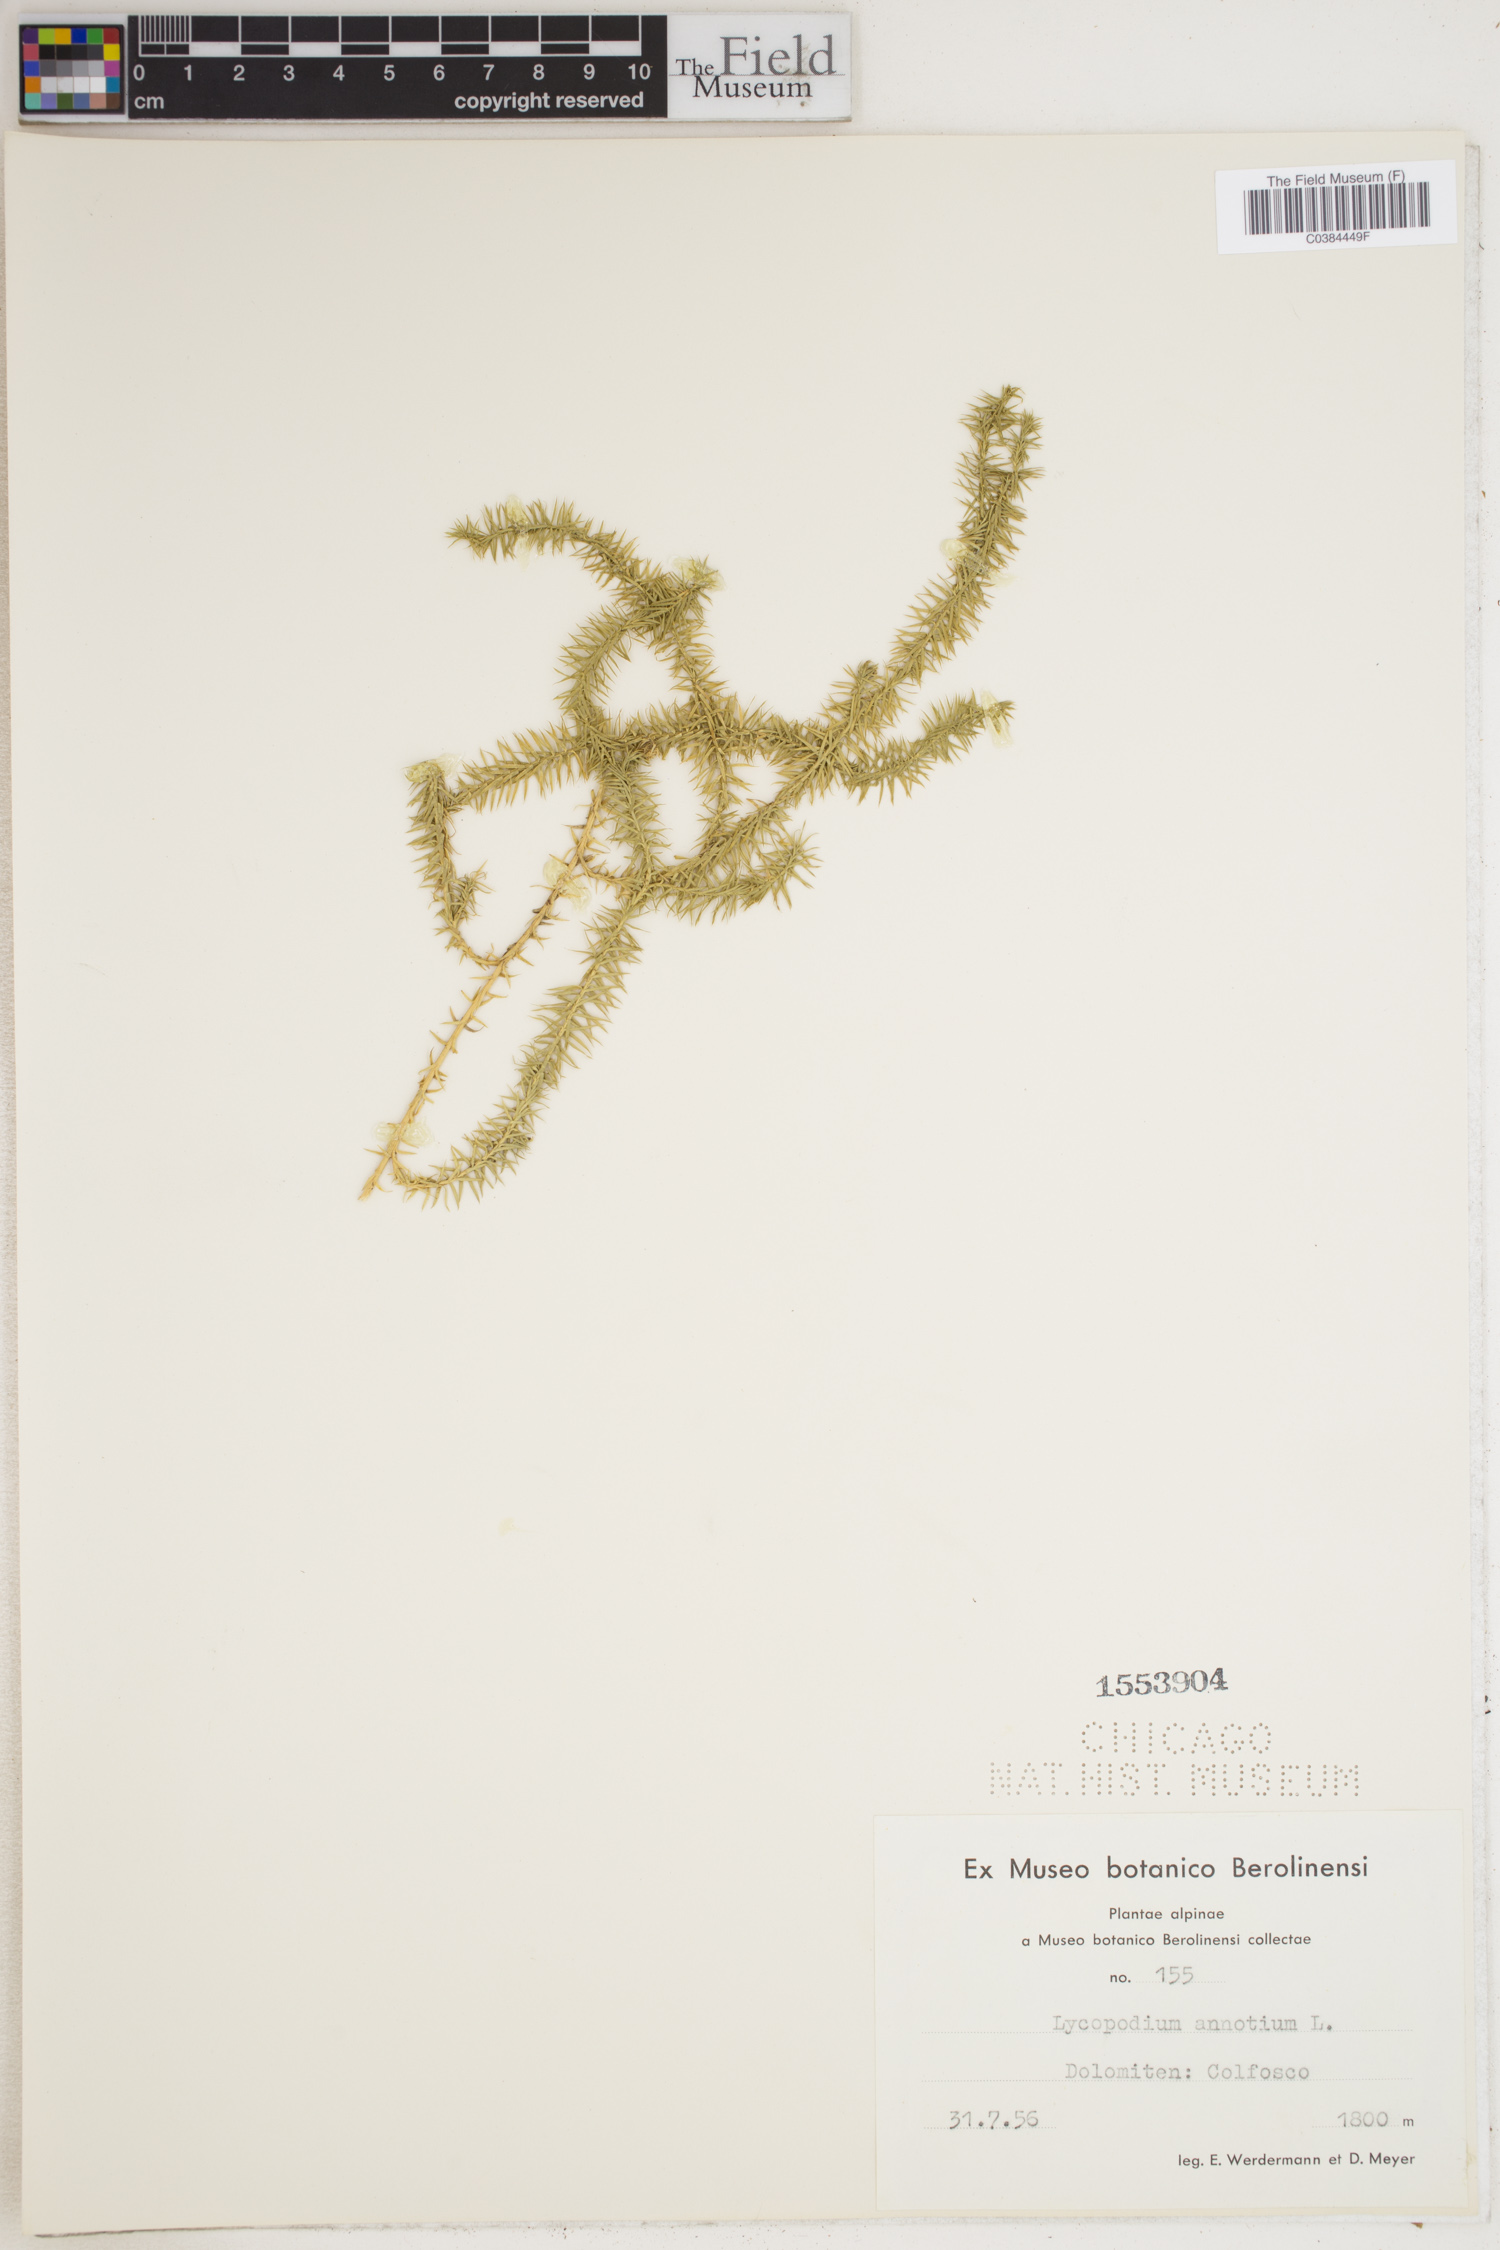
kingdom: Plantae
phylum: Tracheophyta
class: Lycopodiopsida
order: Lycopodiales
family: Lycopodiaceae
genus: Spinulum
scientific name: Spinulum annotinum
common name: Interrupted club-moss
